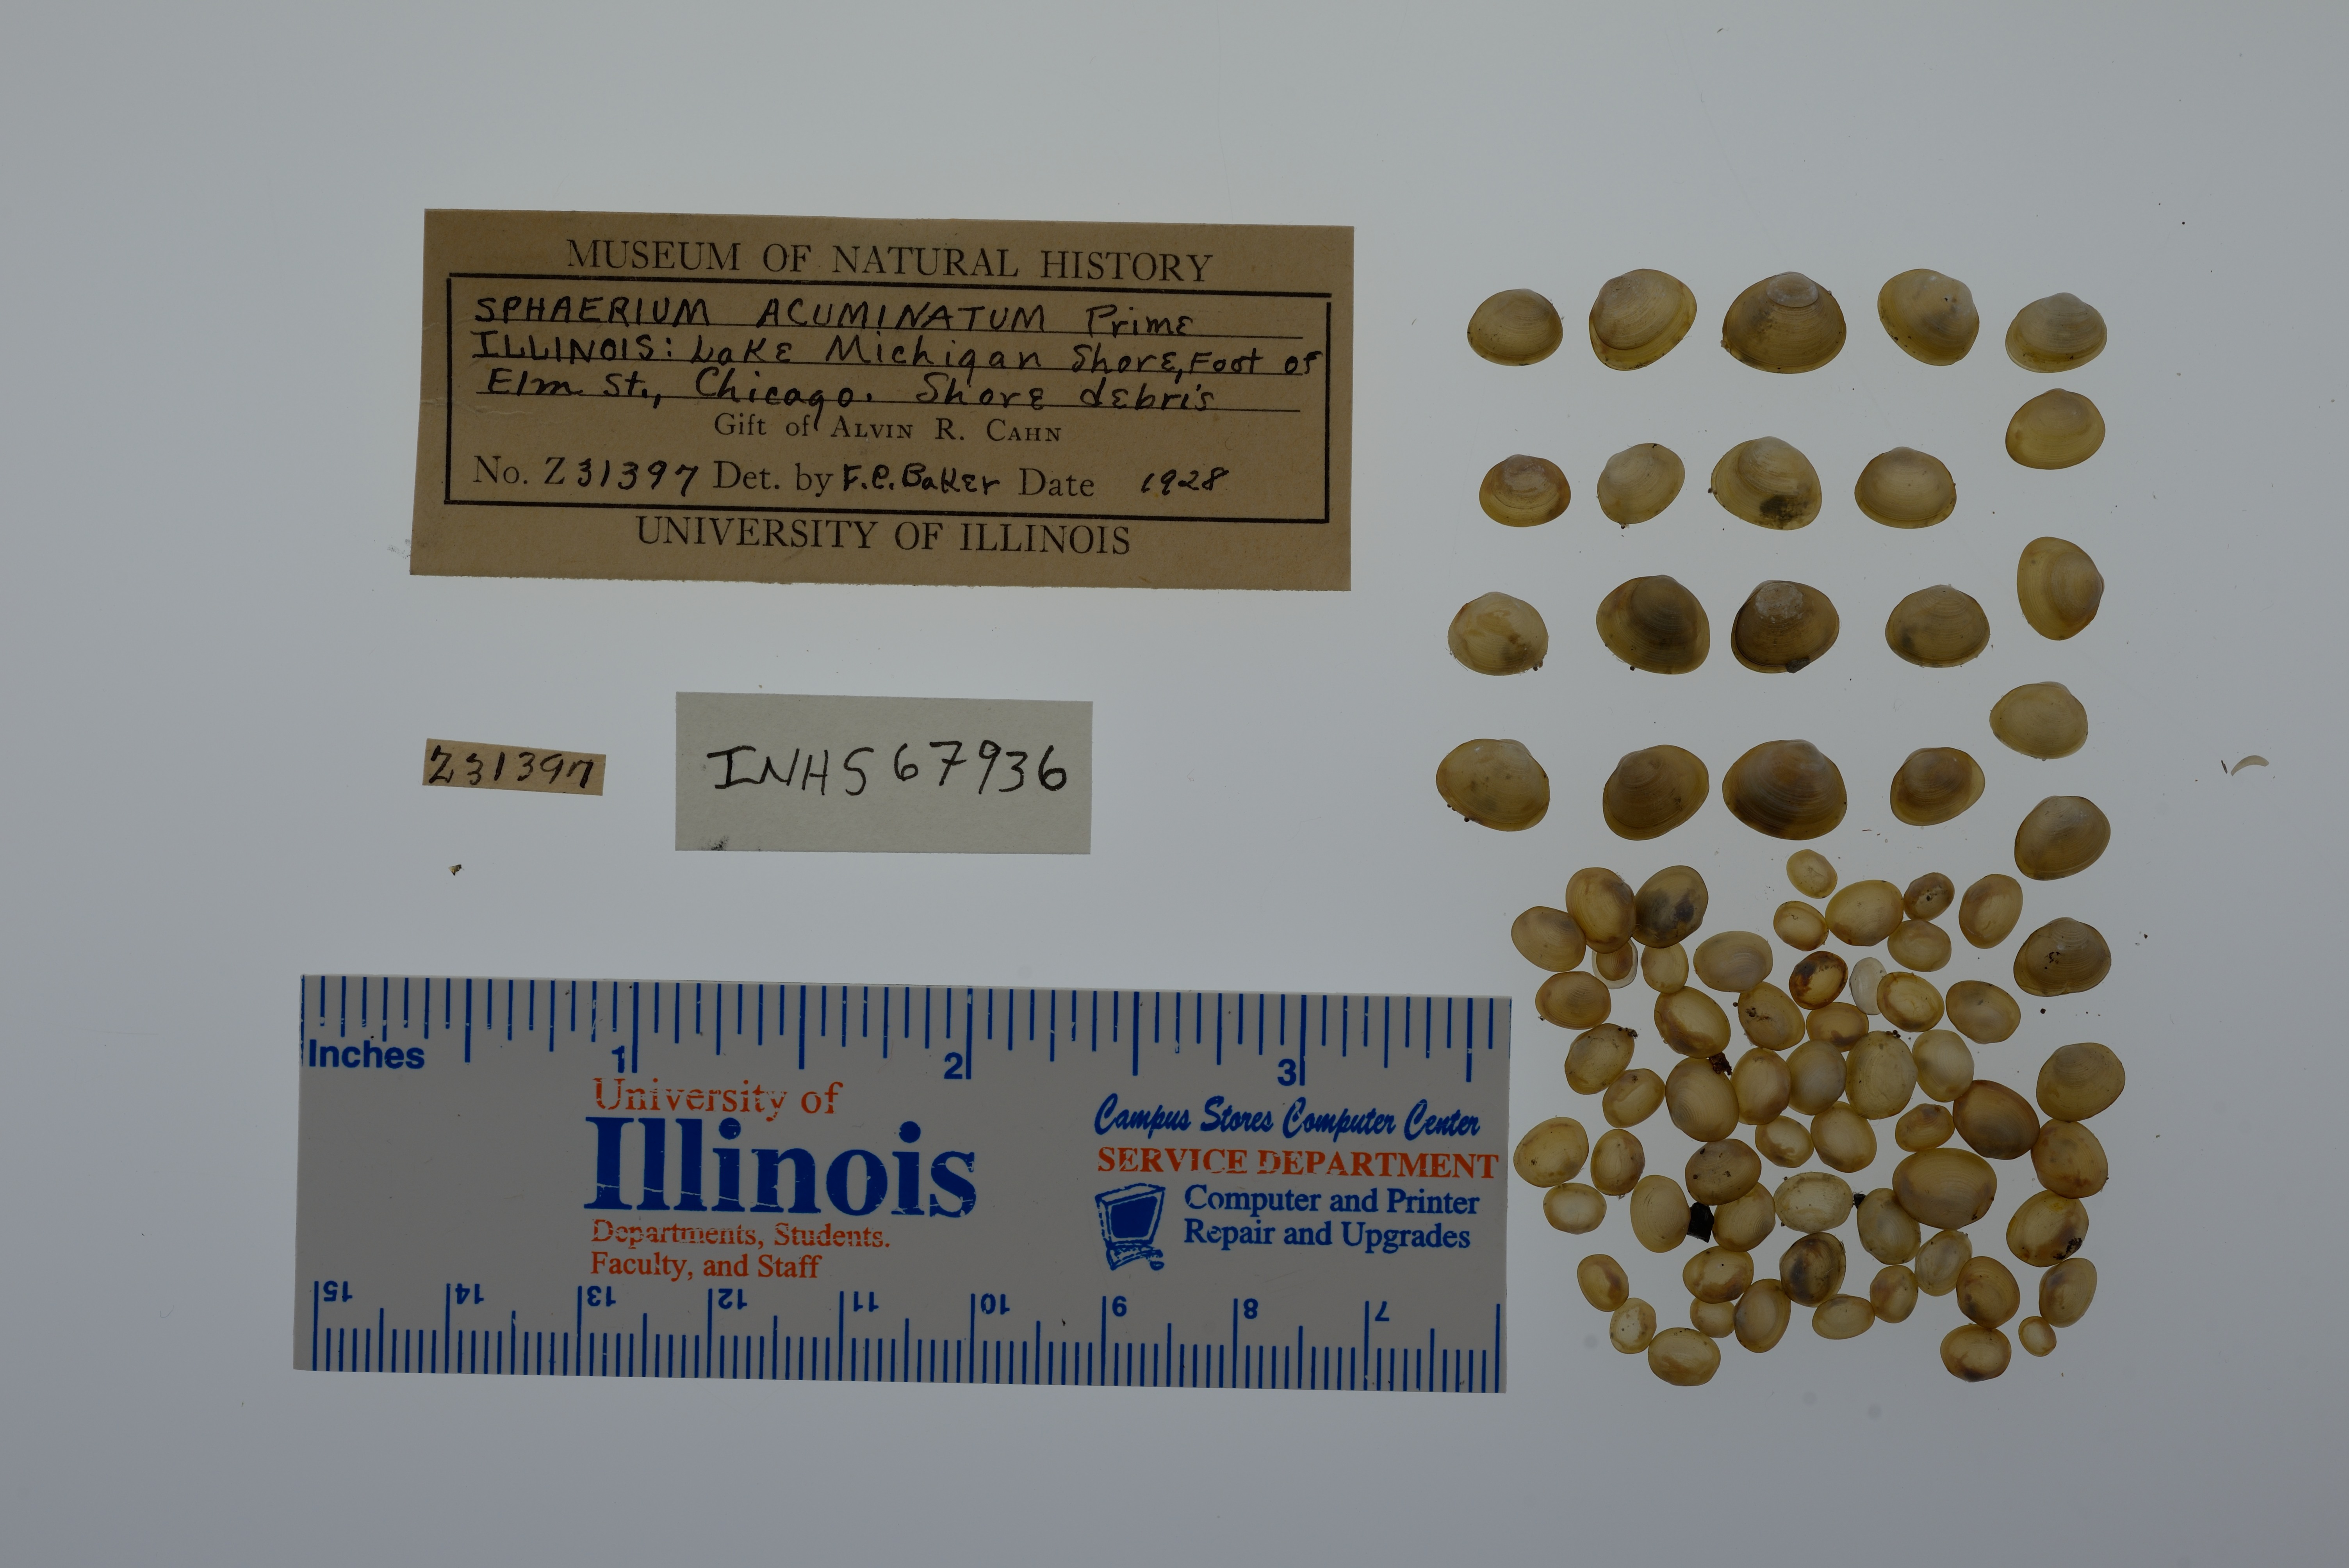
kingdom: Animalia
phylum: Mollusca
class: Bivalvia
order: Sphaeriida
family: Sphaeriidae
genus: Sphaerium
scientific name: Sphaerium striatinum
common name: Striated fingernailclam
